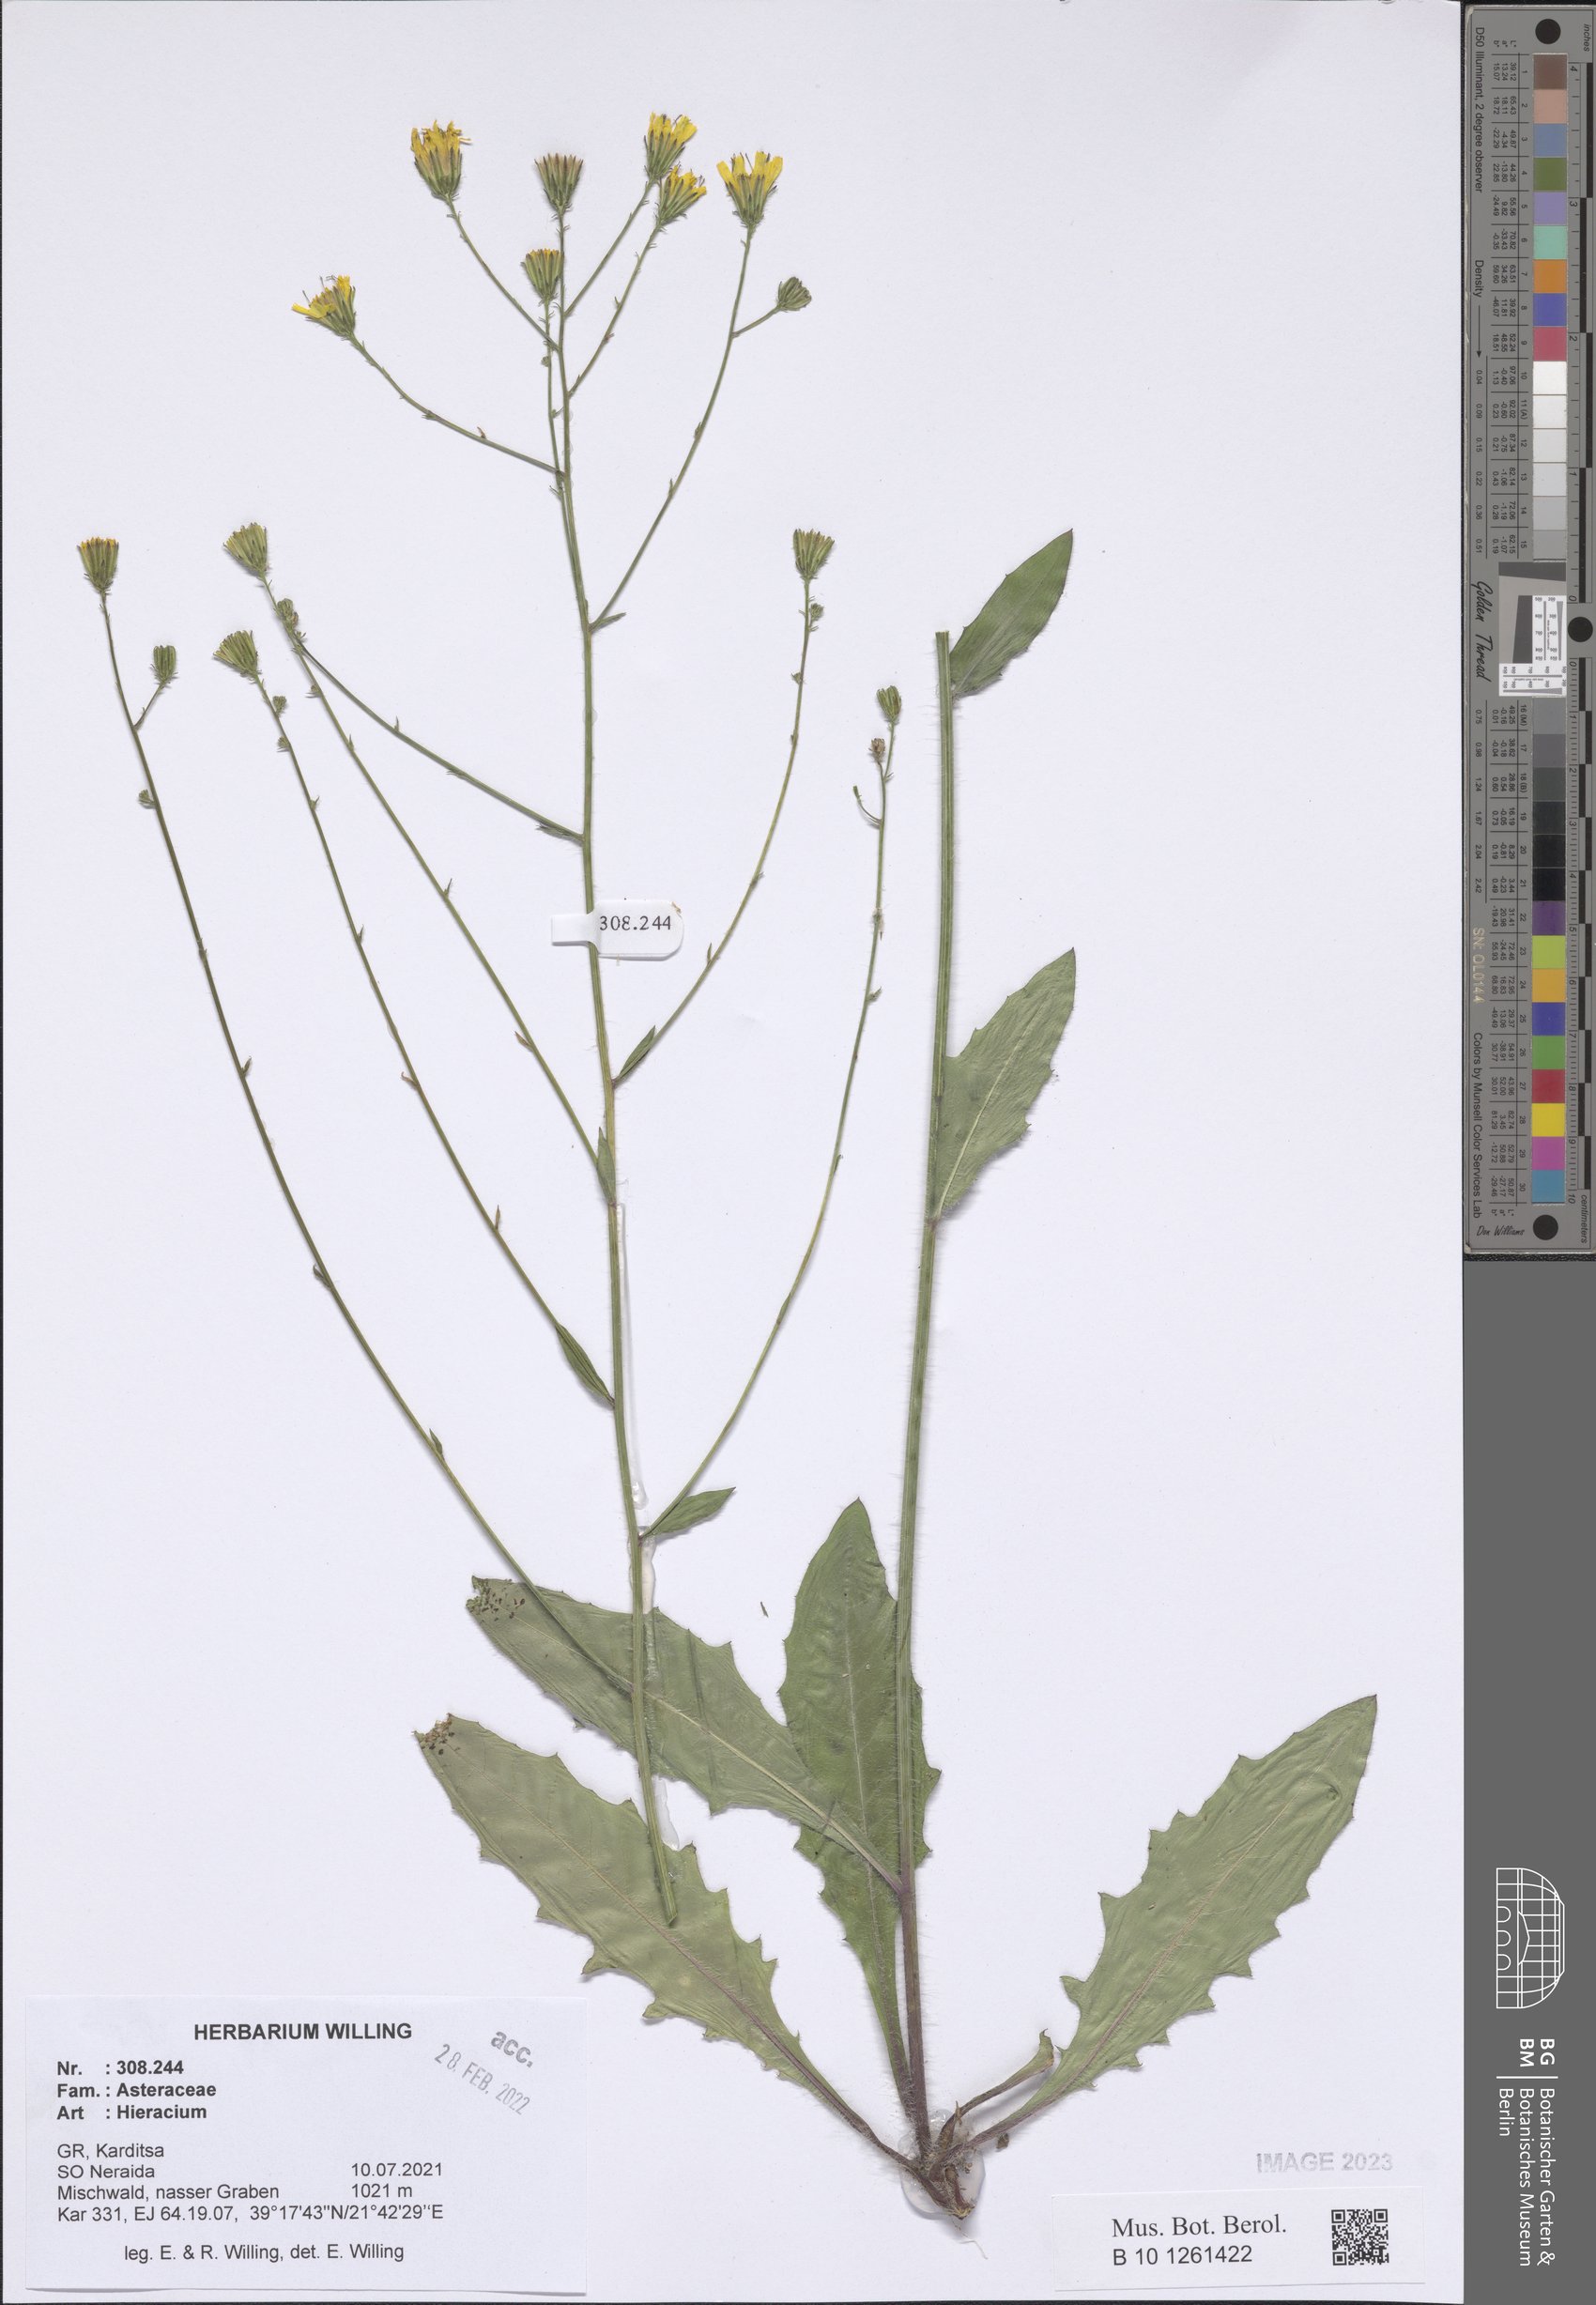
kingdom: Plantae
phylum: Tracheophyta
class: Magnoliopsida
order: Asterales
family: Asteraceae
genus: Hieracium
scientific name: Hieracium
